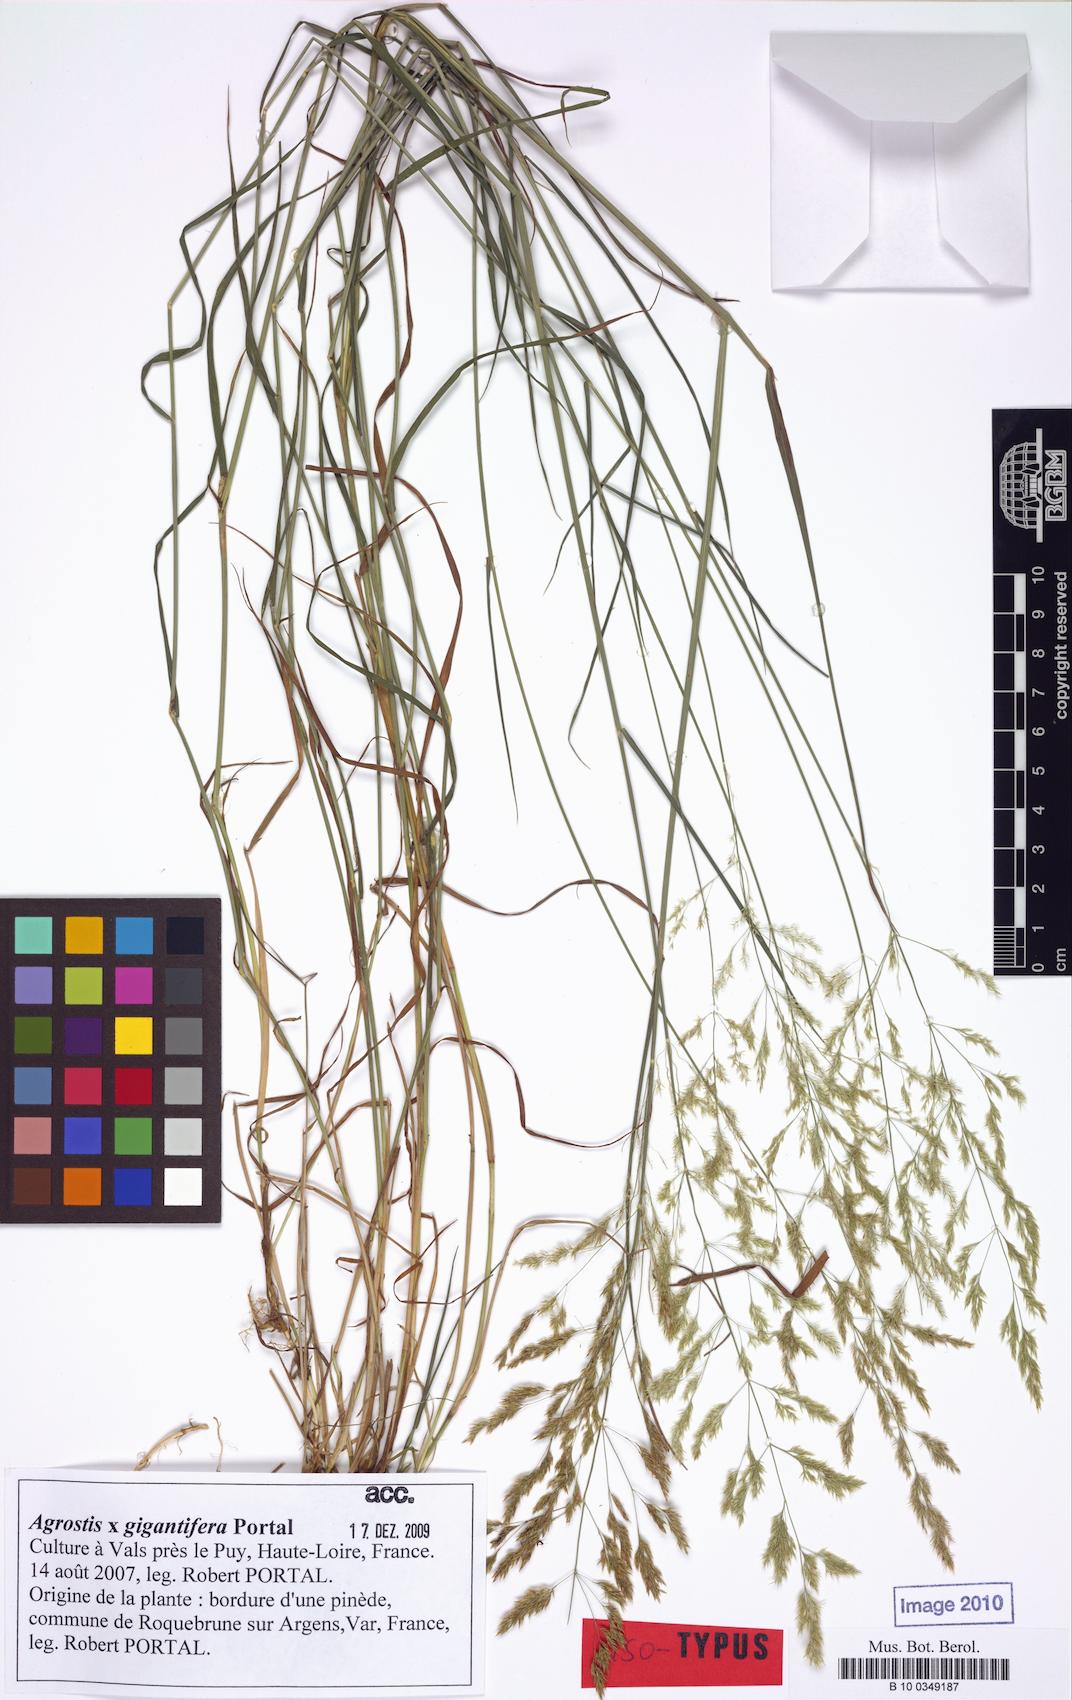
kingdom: Plantae
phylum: Tracheophyta
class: Liliopsida
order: Poales
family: Poaceae
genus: Agrostis
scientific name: Agrostis gigantifera
